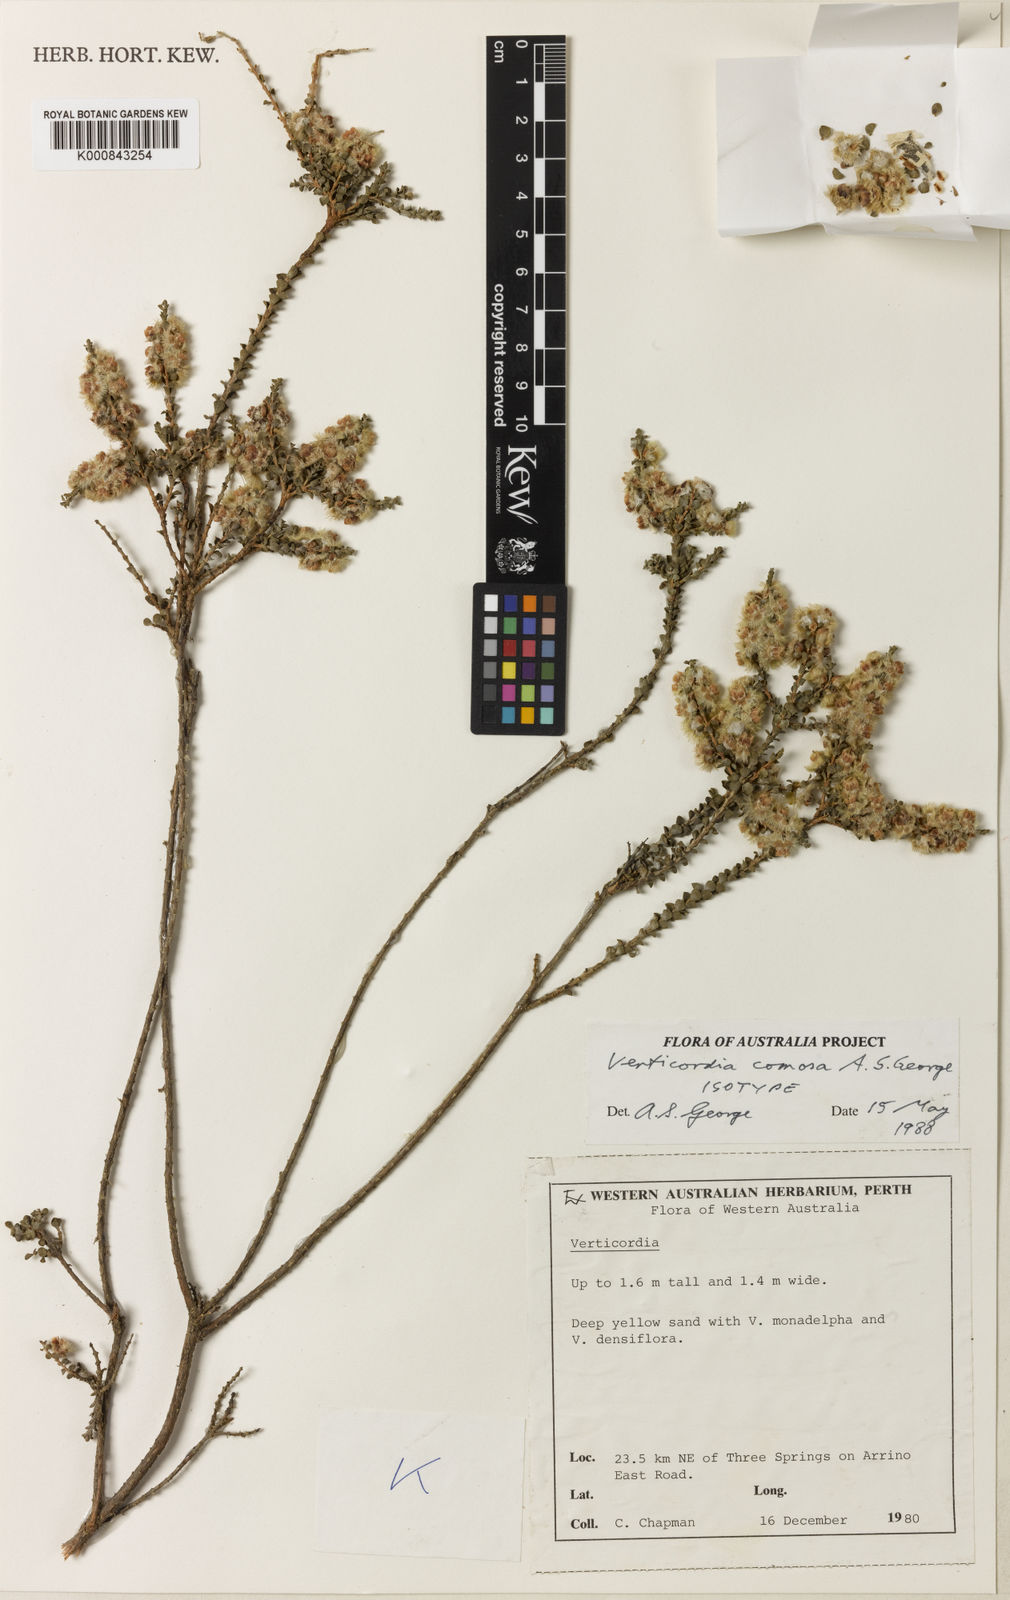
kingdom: Plantae
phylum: Tracheophyta
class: Magnoliopsida
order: Myrtales
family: Myrtaceae
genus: Verticordia
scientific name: Verticordia comosa
